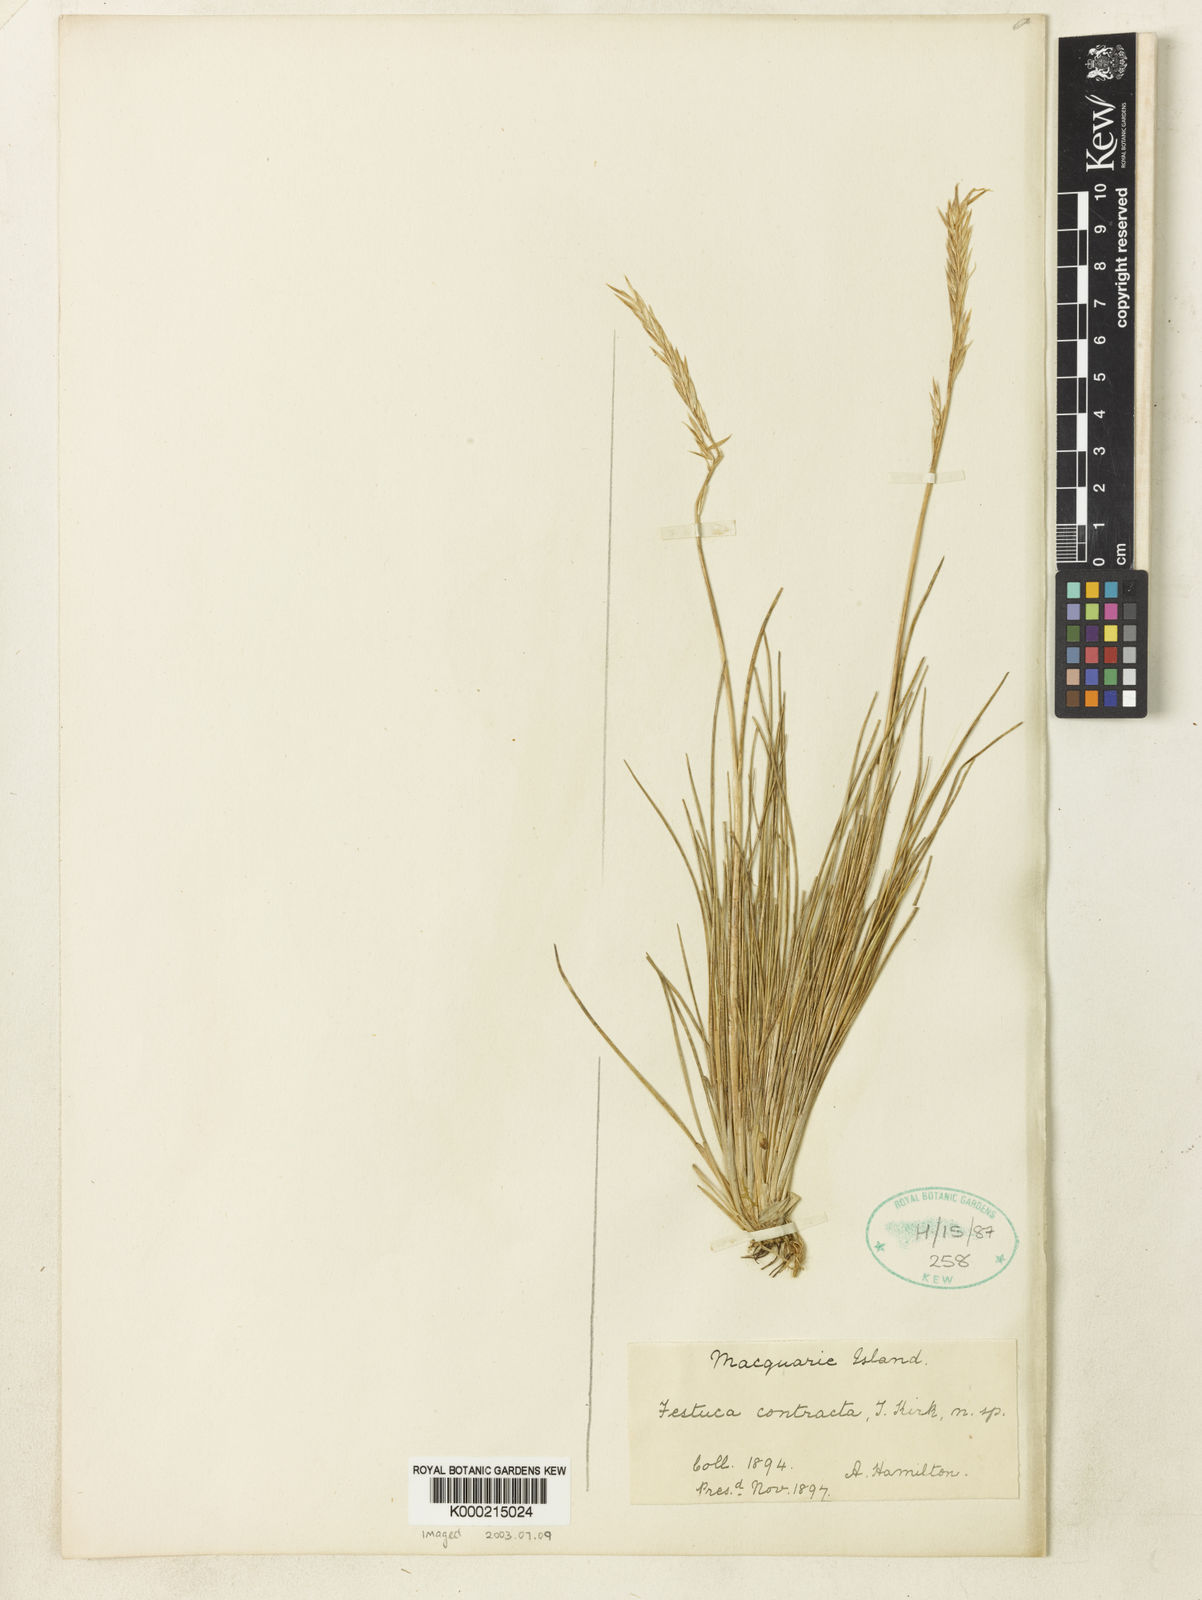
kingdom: Plantae
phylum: Tracheophyta
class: Liliopsida
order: Poales
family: Poaceae
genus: Festuca
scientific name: Festuca contracta
